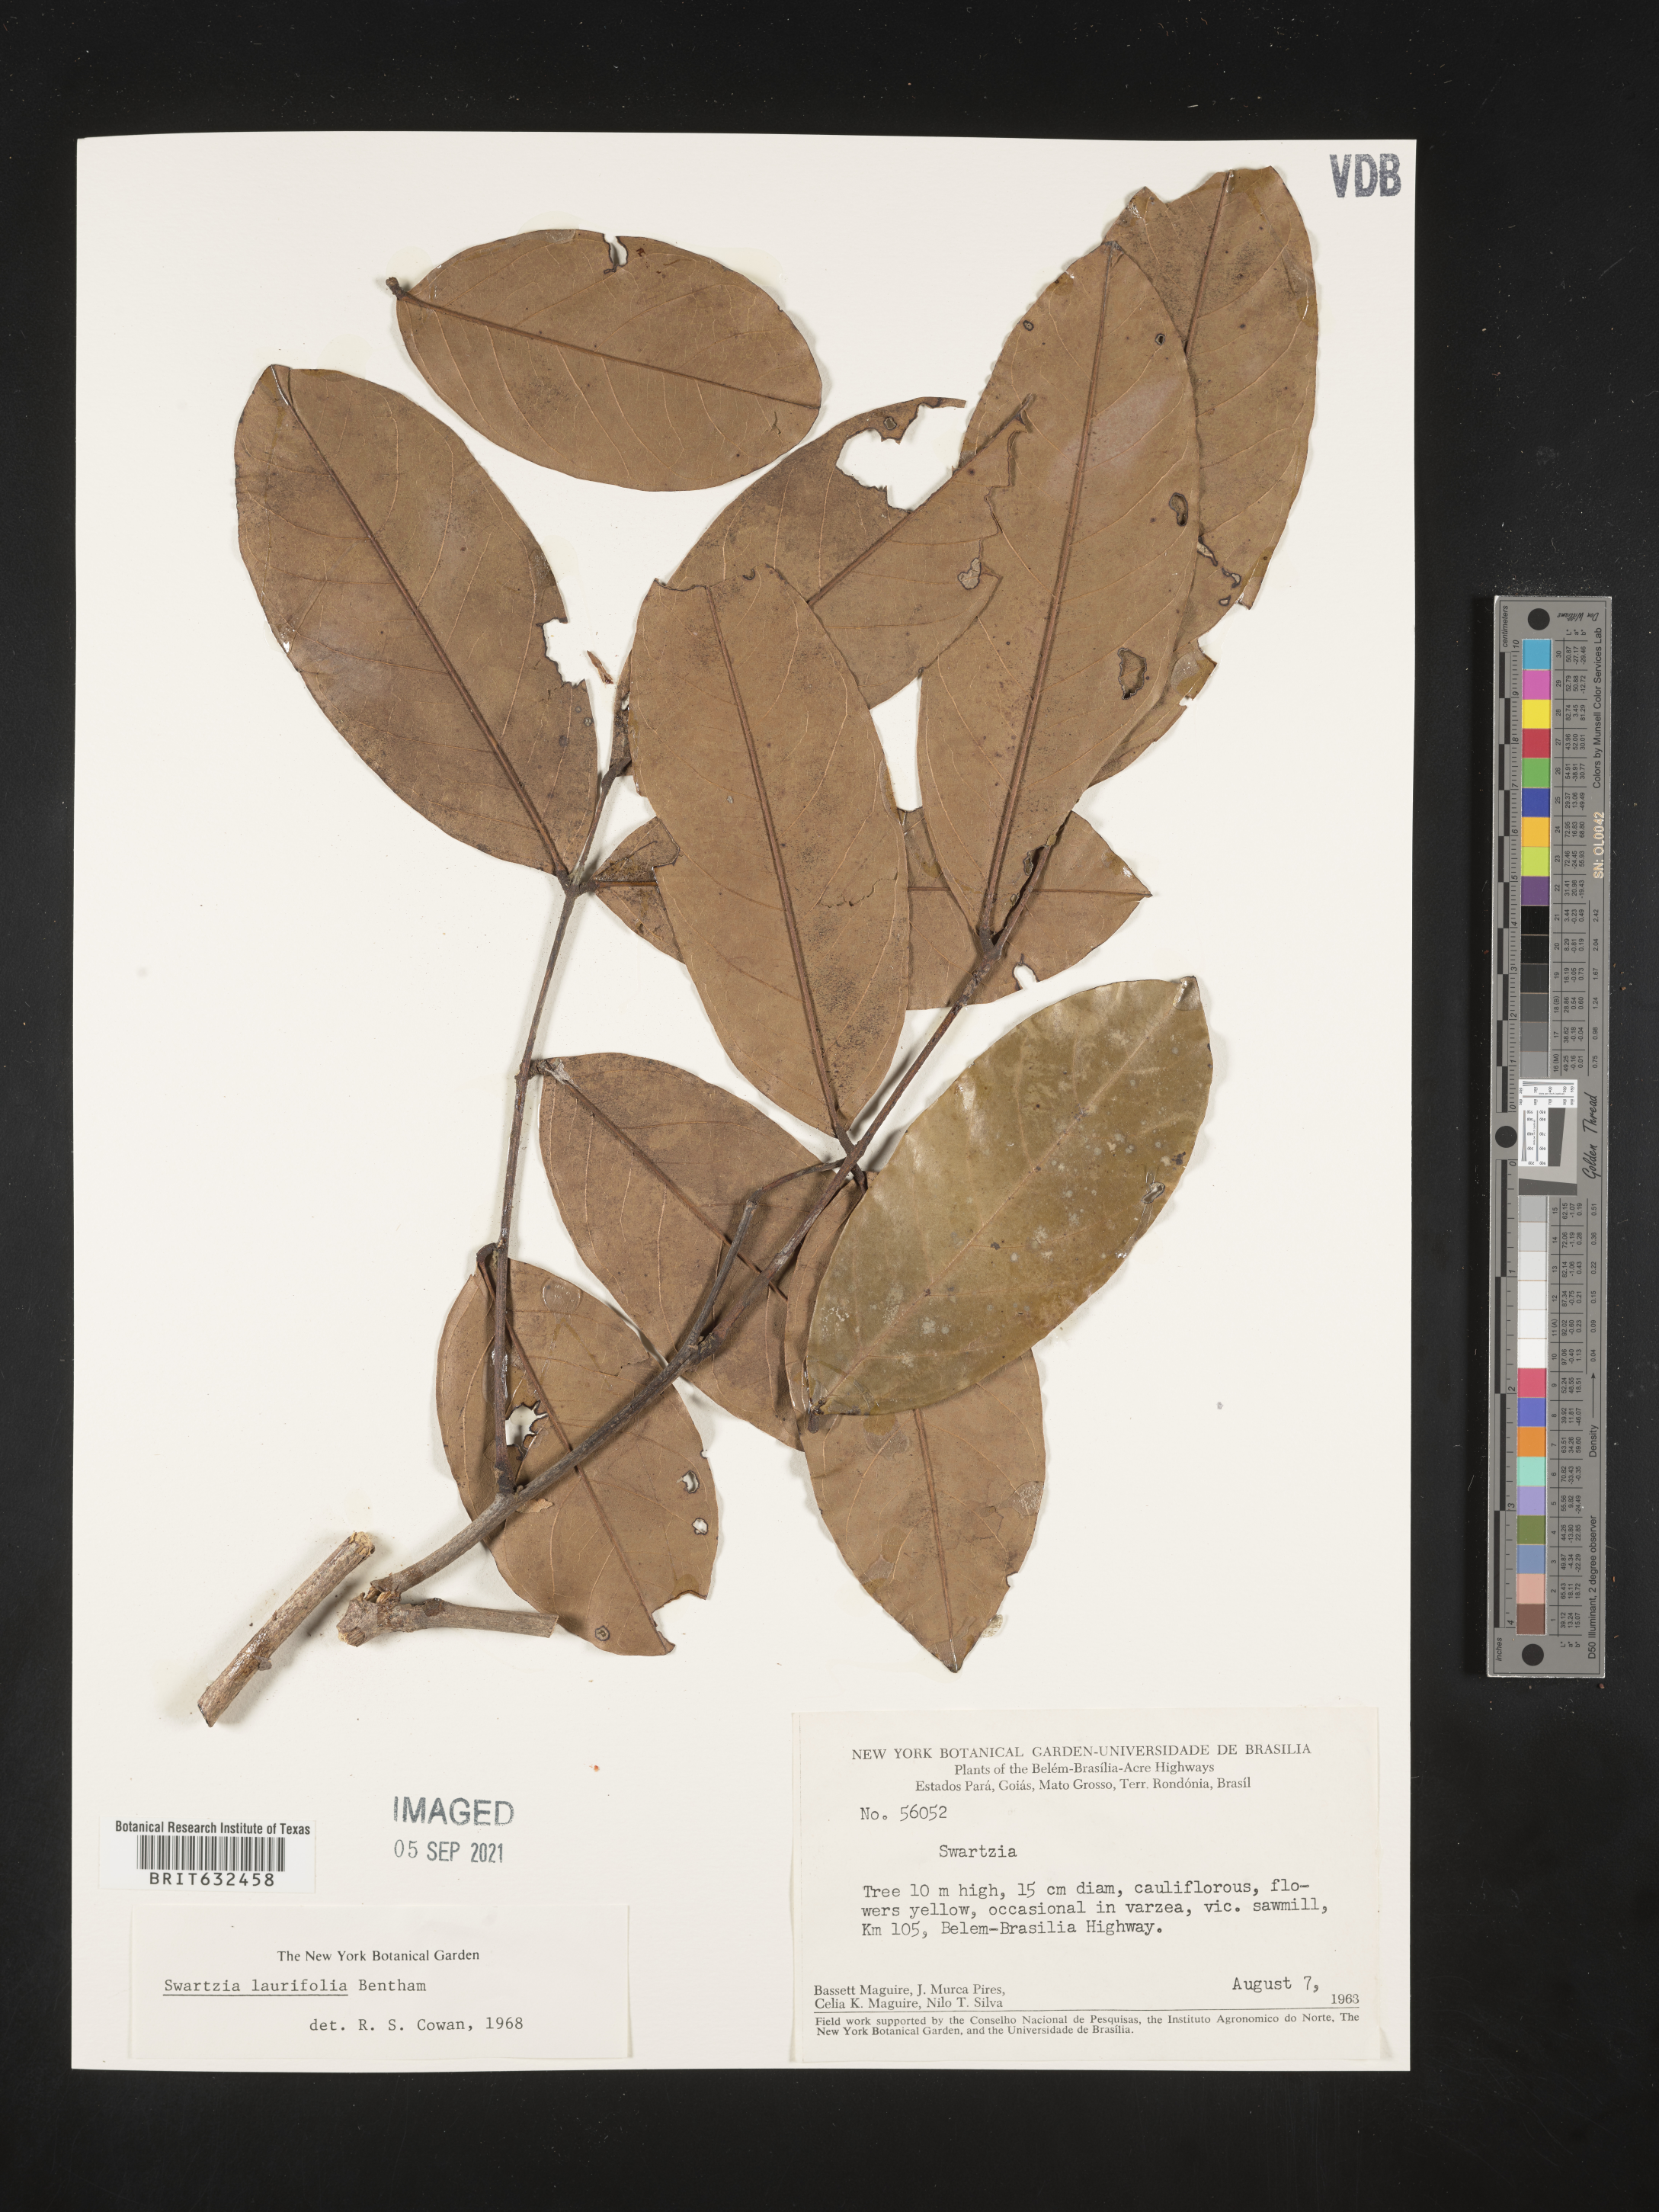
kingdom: Plantae
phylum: Tracheophyta
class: Magnoliopsida
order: Fabales
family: Fabaceae
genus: Swartzia
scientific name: Swartzia
